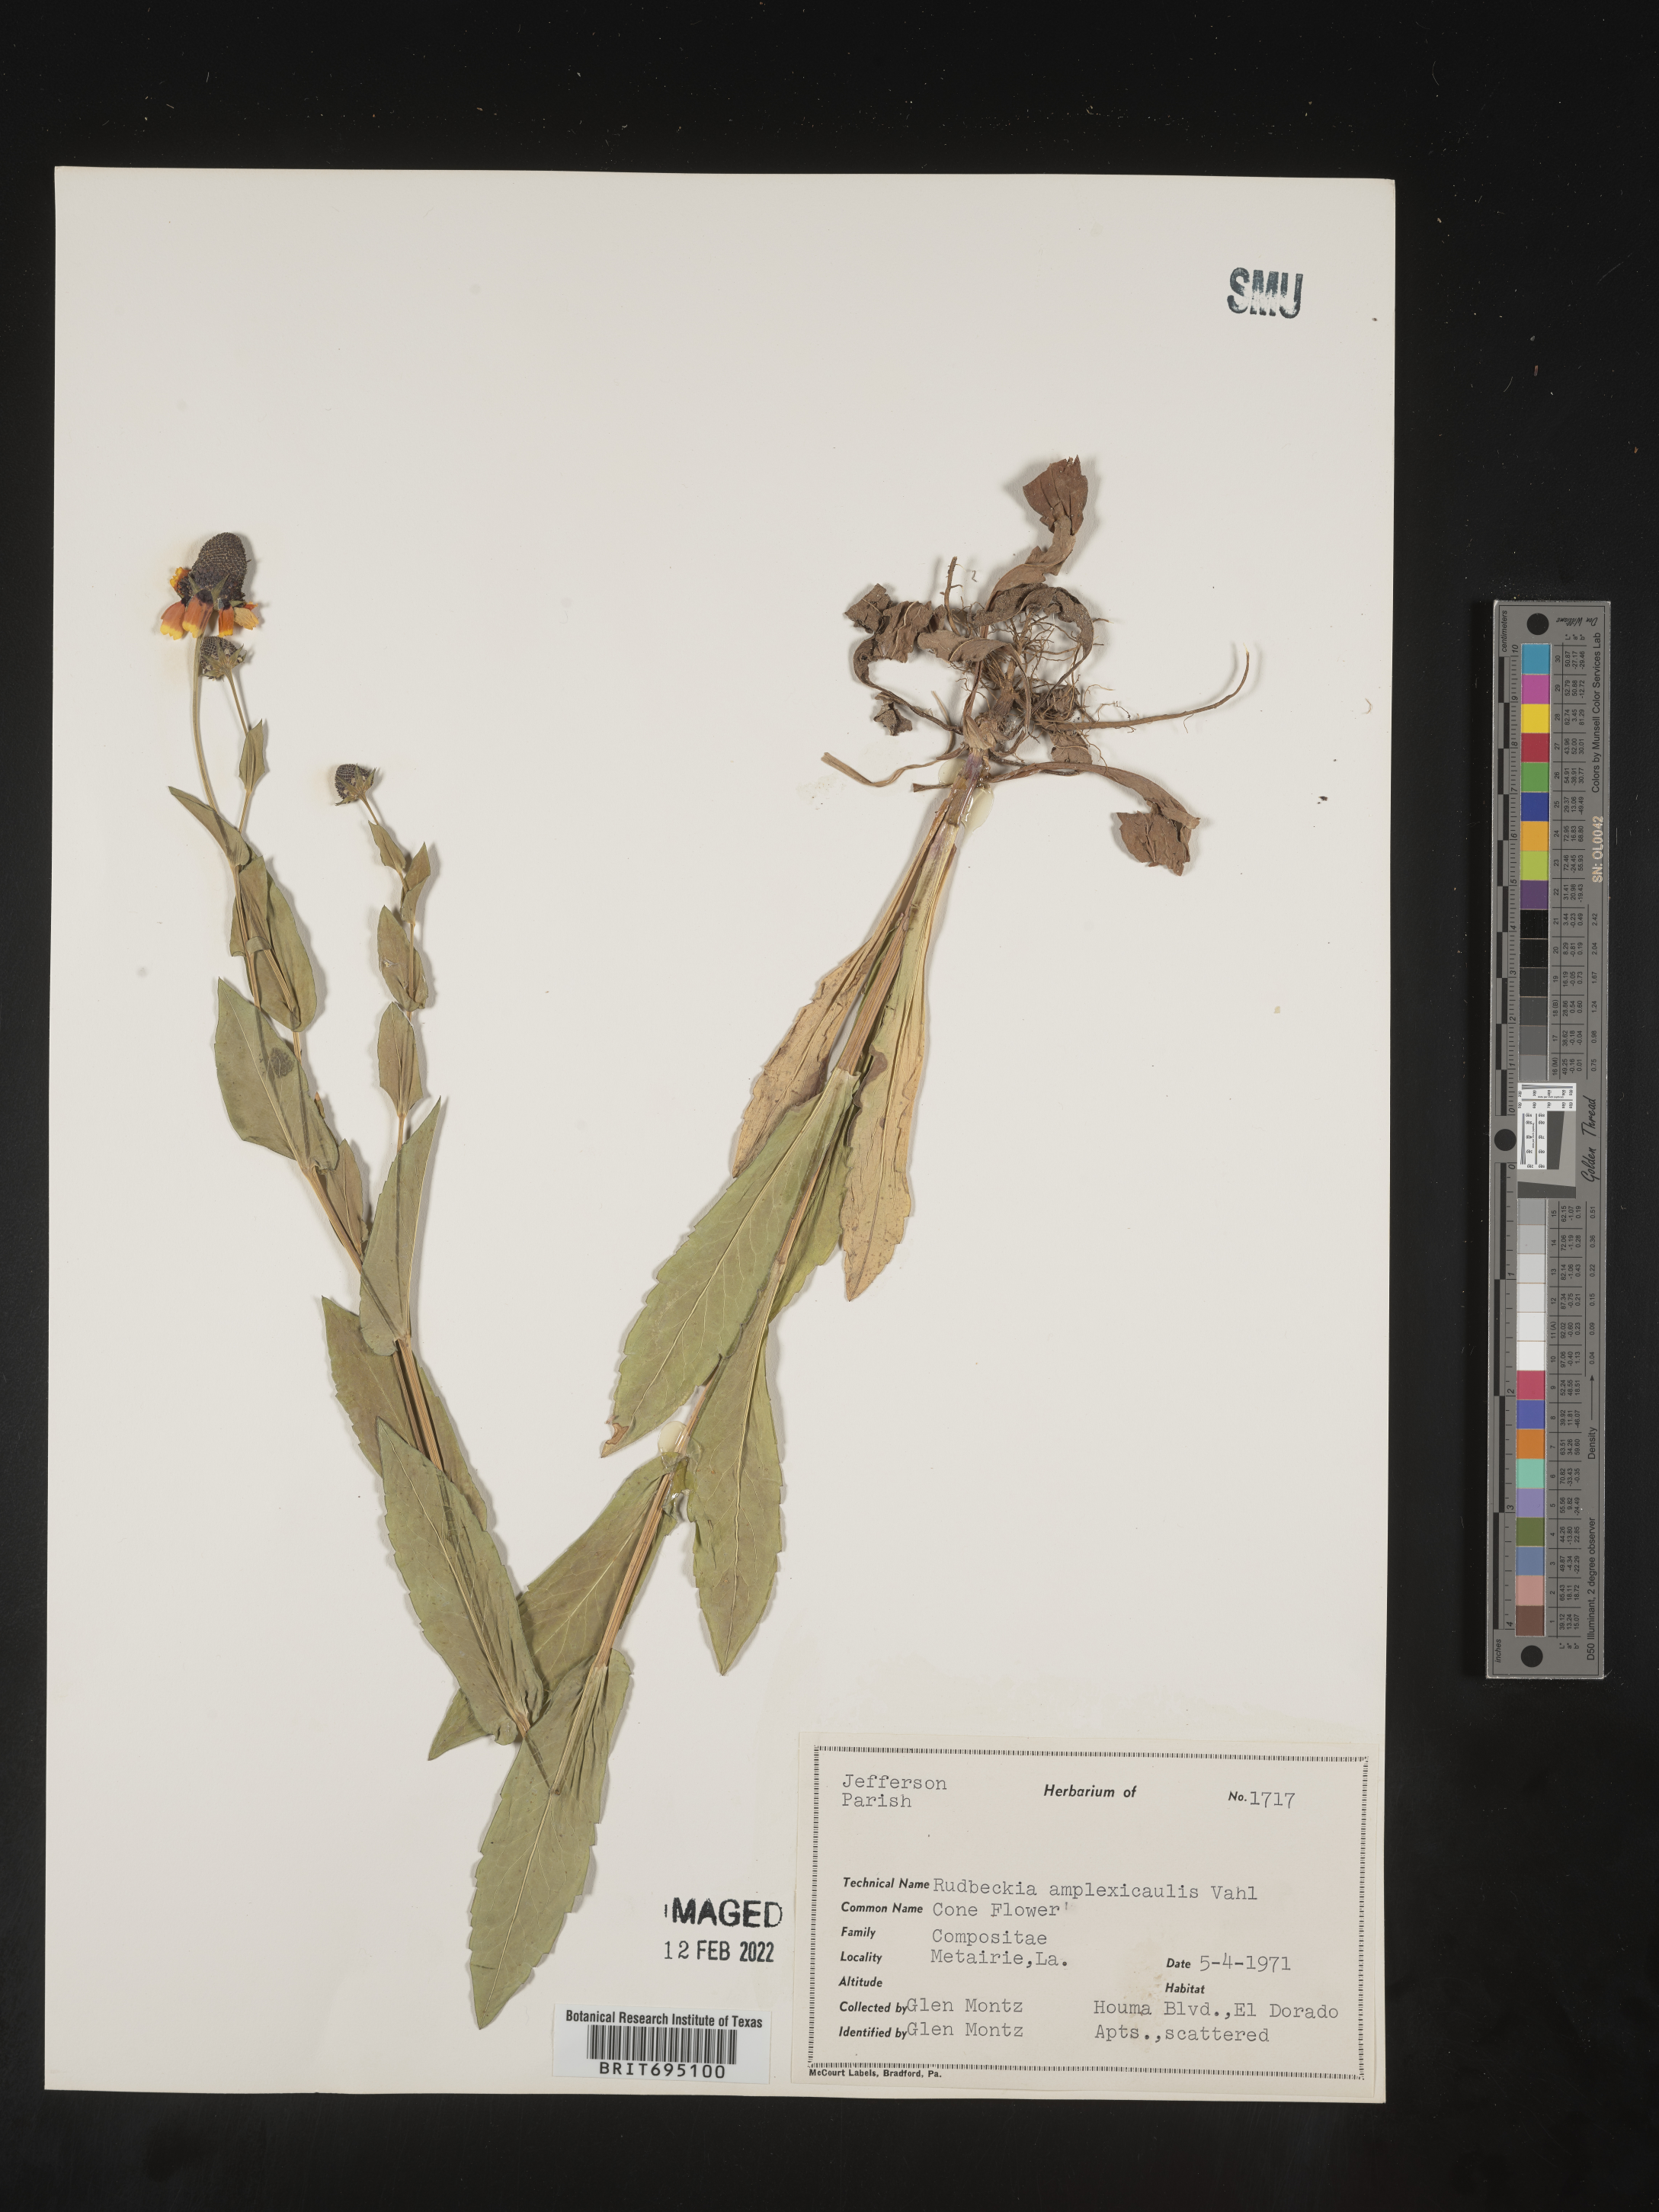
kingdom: Plantae
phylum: Tracheophyta
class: Magnoliopsida
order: Asterales
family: Asteraceae
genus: Rudbeckia
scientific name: Rudbeckia amplexicaulis
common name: Clasping-leaf coneflower
